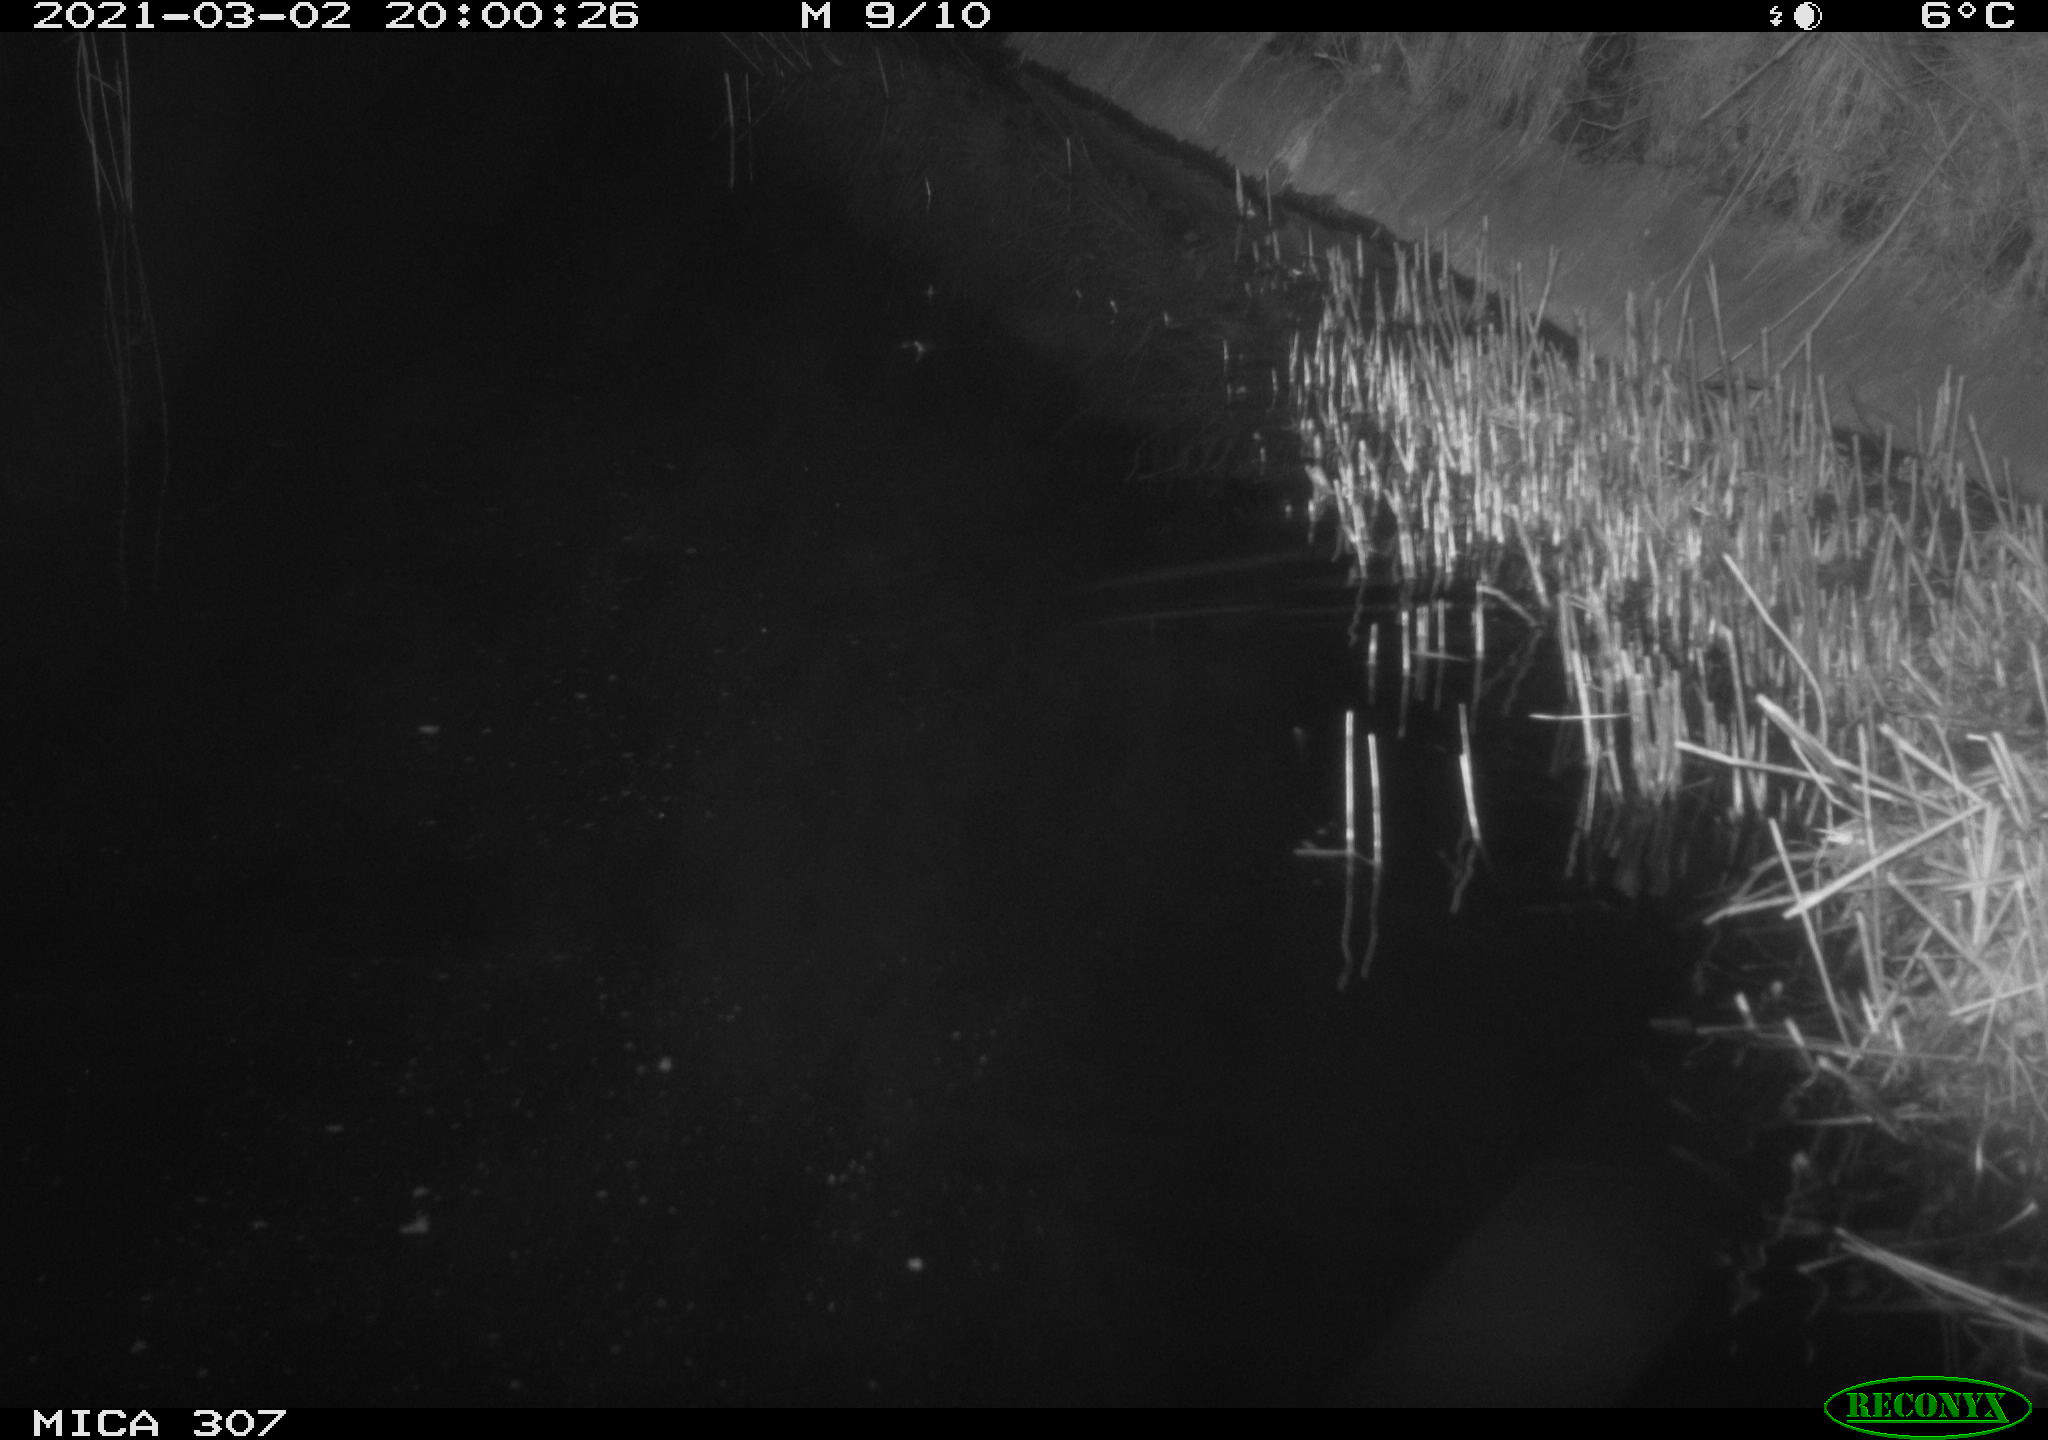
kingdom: Animalia
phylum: Chordata
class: Mammalia
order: Rodentia
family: Muridae
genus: Rattus
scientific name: Rattus norvegicus
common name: Brown rat
